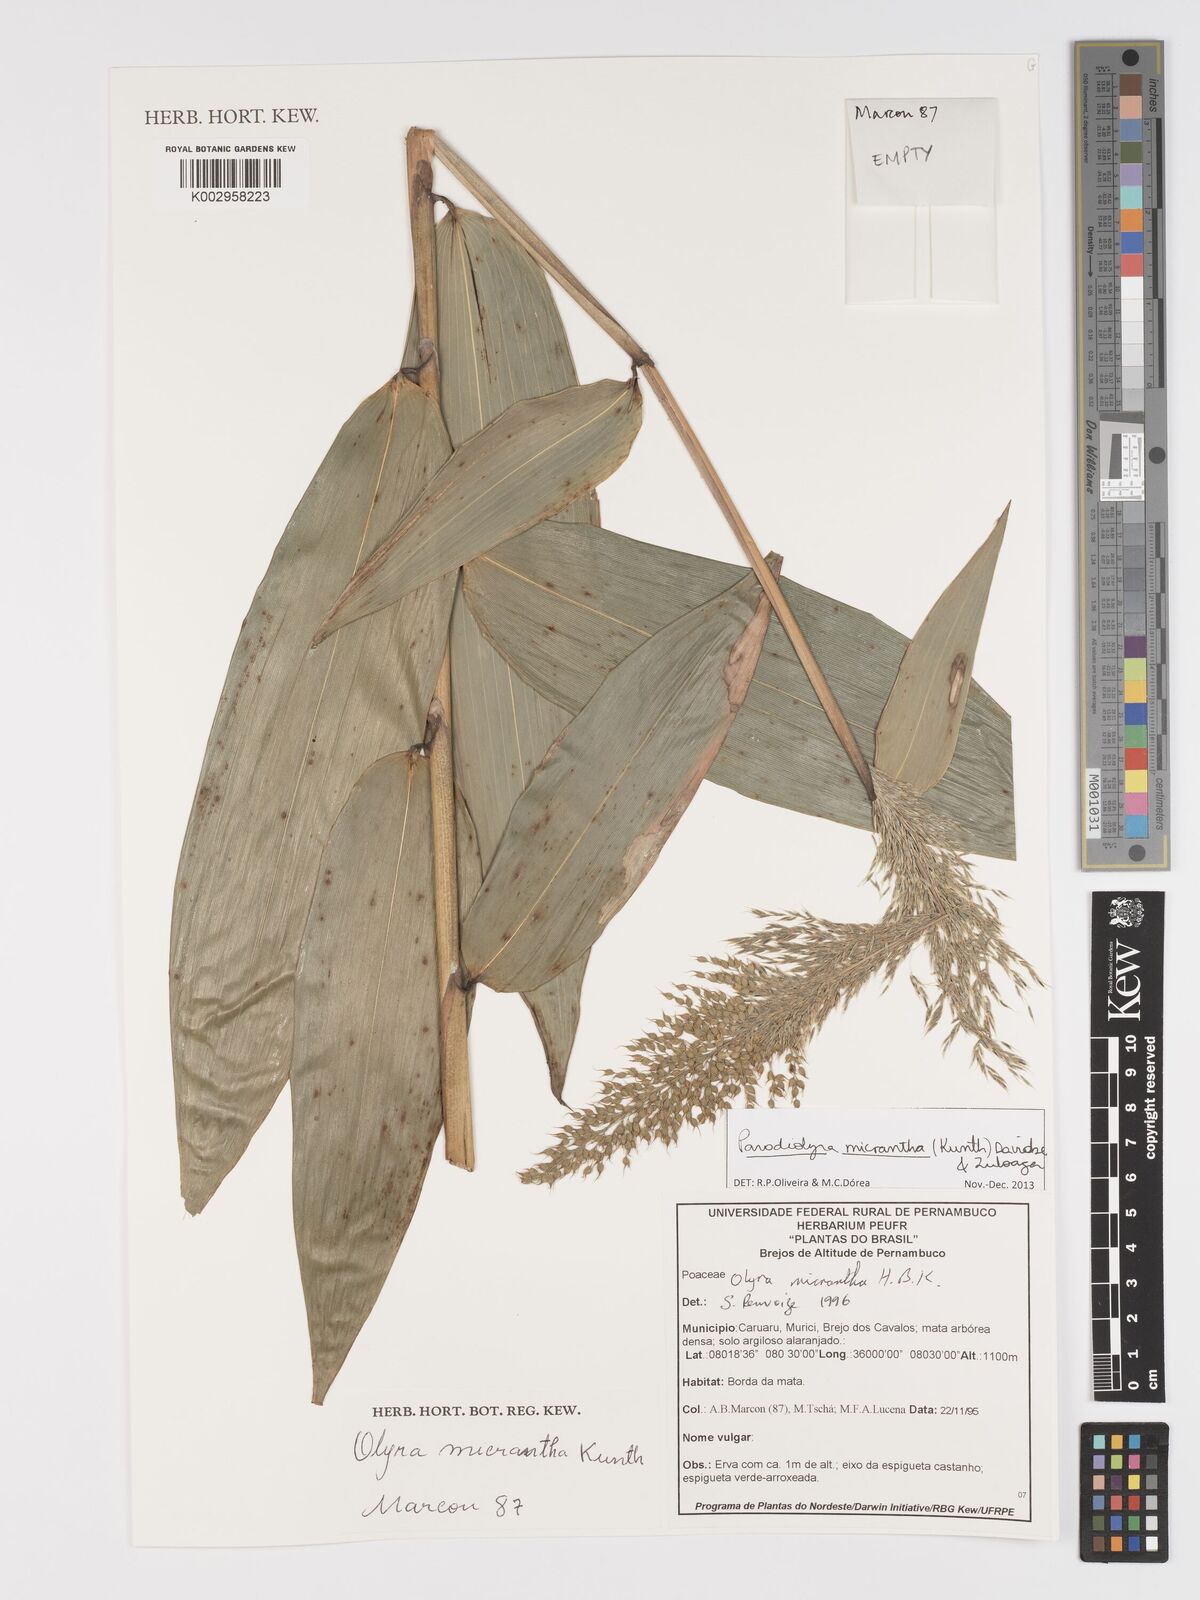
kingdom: Plantae
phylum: Tracheophyta
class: Liliopsida
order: Poales
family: Poaceae
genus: Taquara
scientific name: Taquara micrantha
